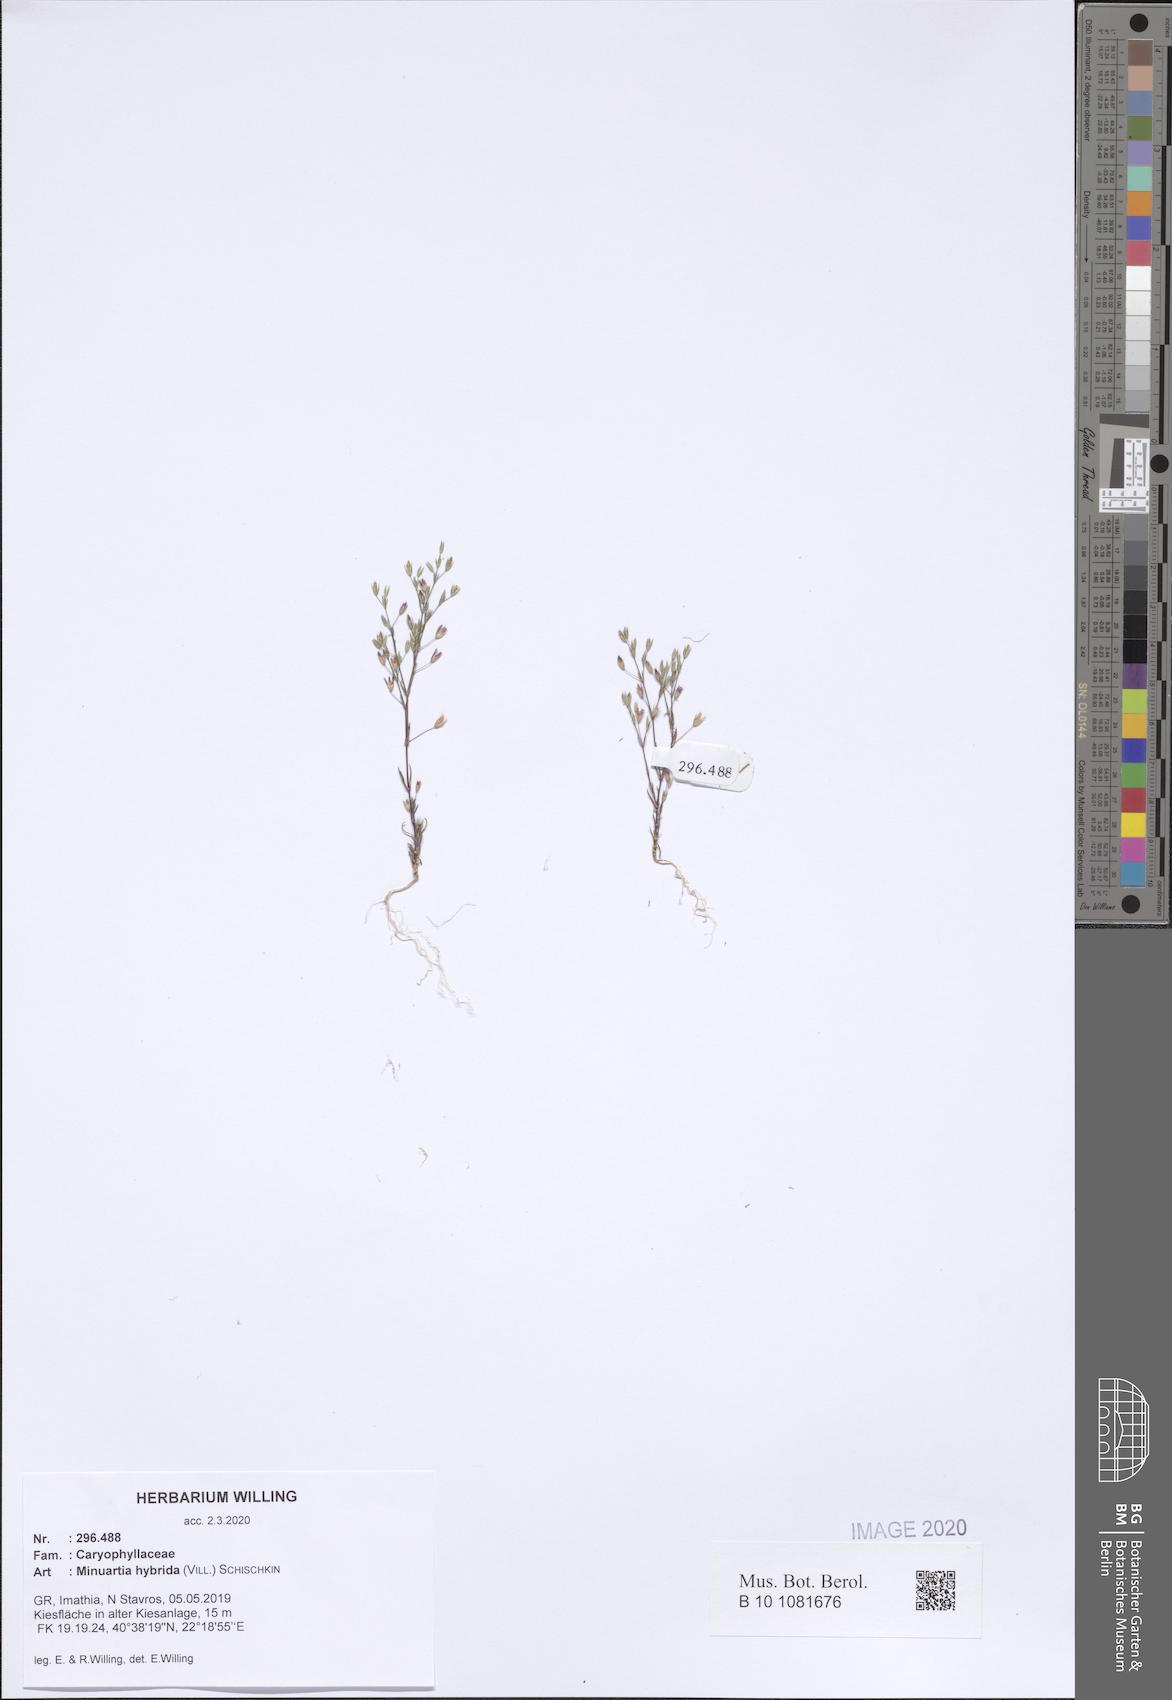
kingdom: Plantae
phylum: Tracheophyta
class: Magnoliopsida
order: Caryophyllales
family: Caryophyllaceae
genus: Sabulina
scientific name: Sabulina tenuifolia
